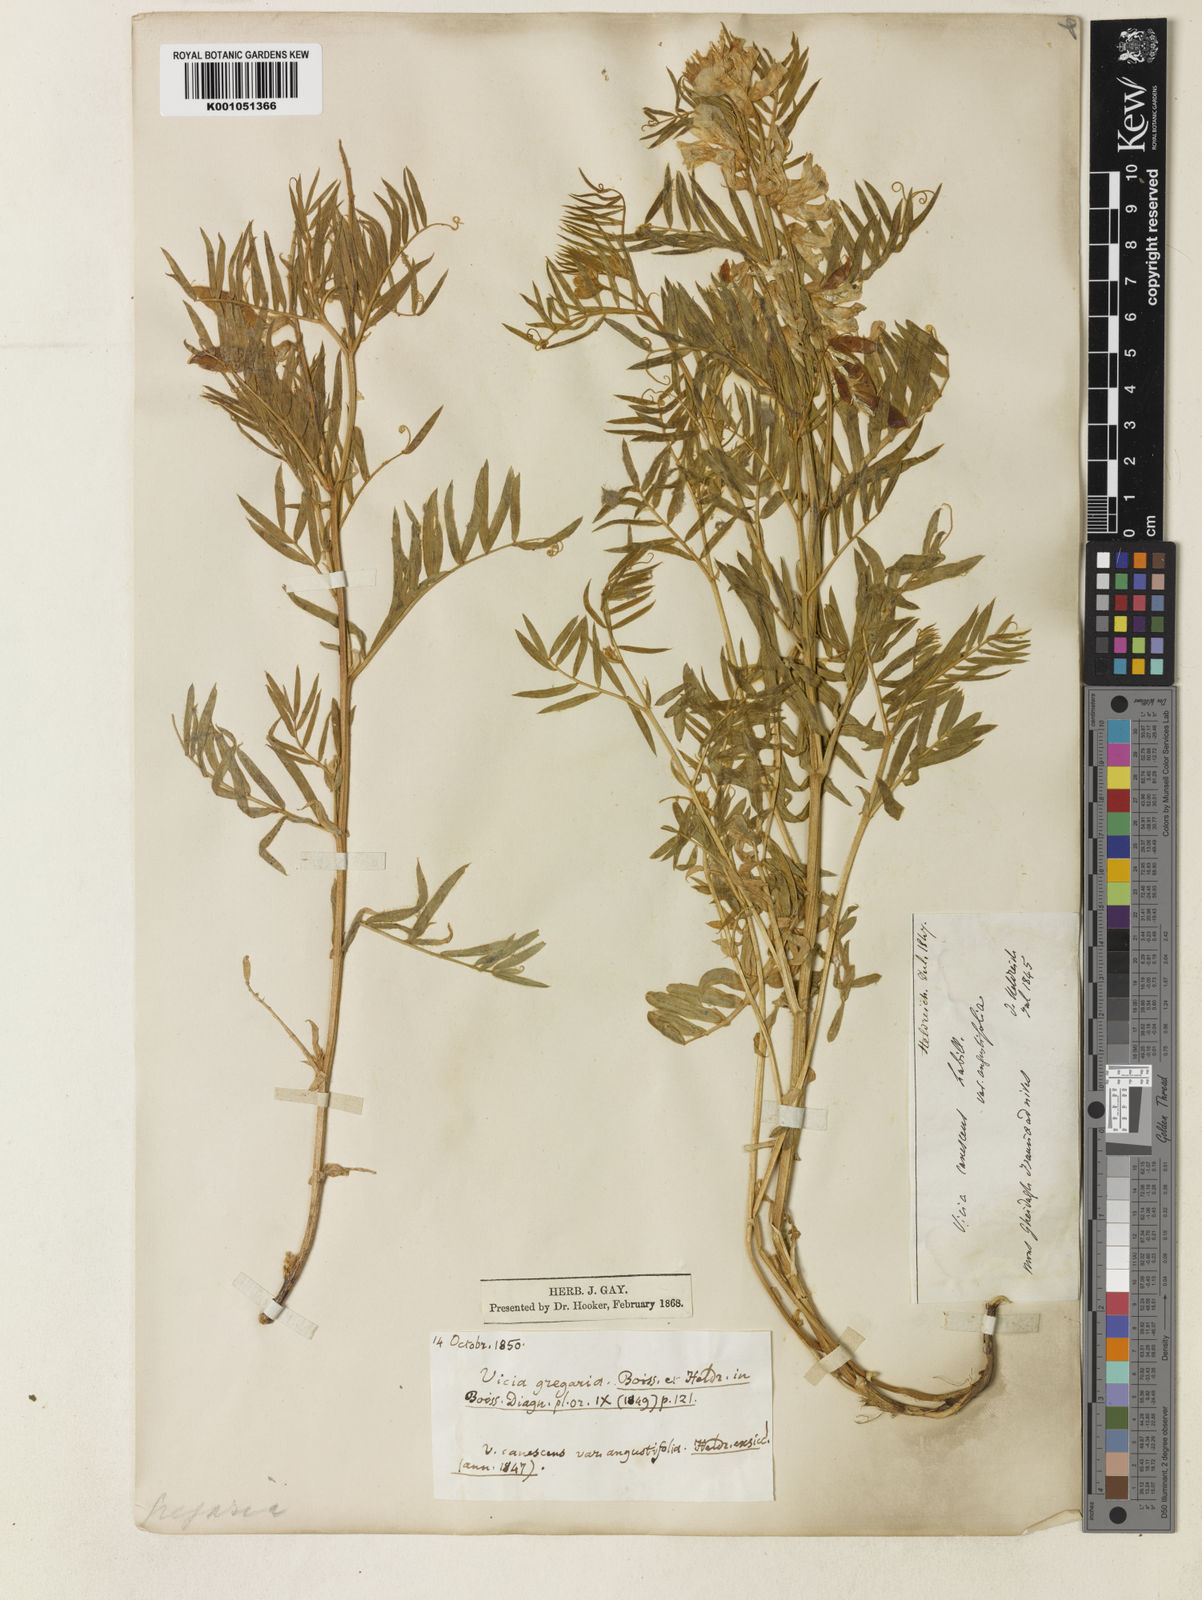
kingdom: Plantae
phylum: Tracheophyta
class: Magnoliopsida
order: Fabales
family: Fabaceae
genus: Vicia
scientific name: Vicia dumetorum
